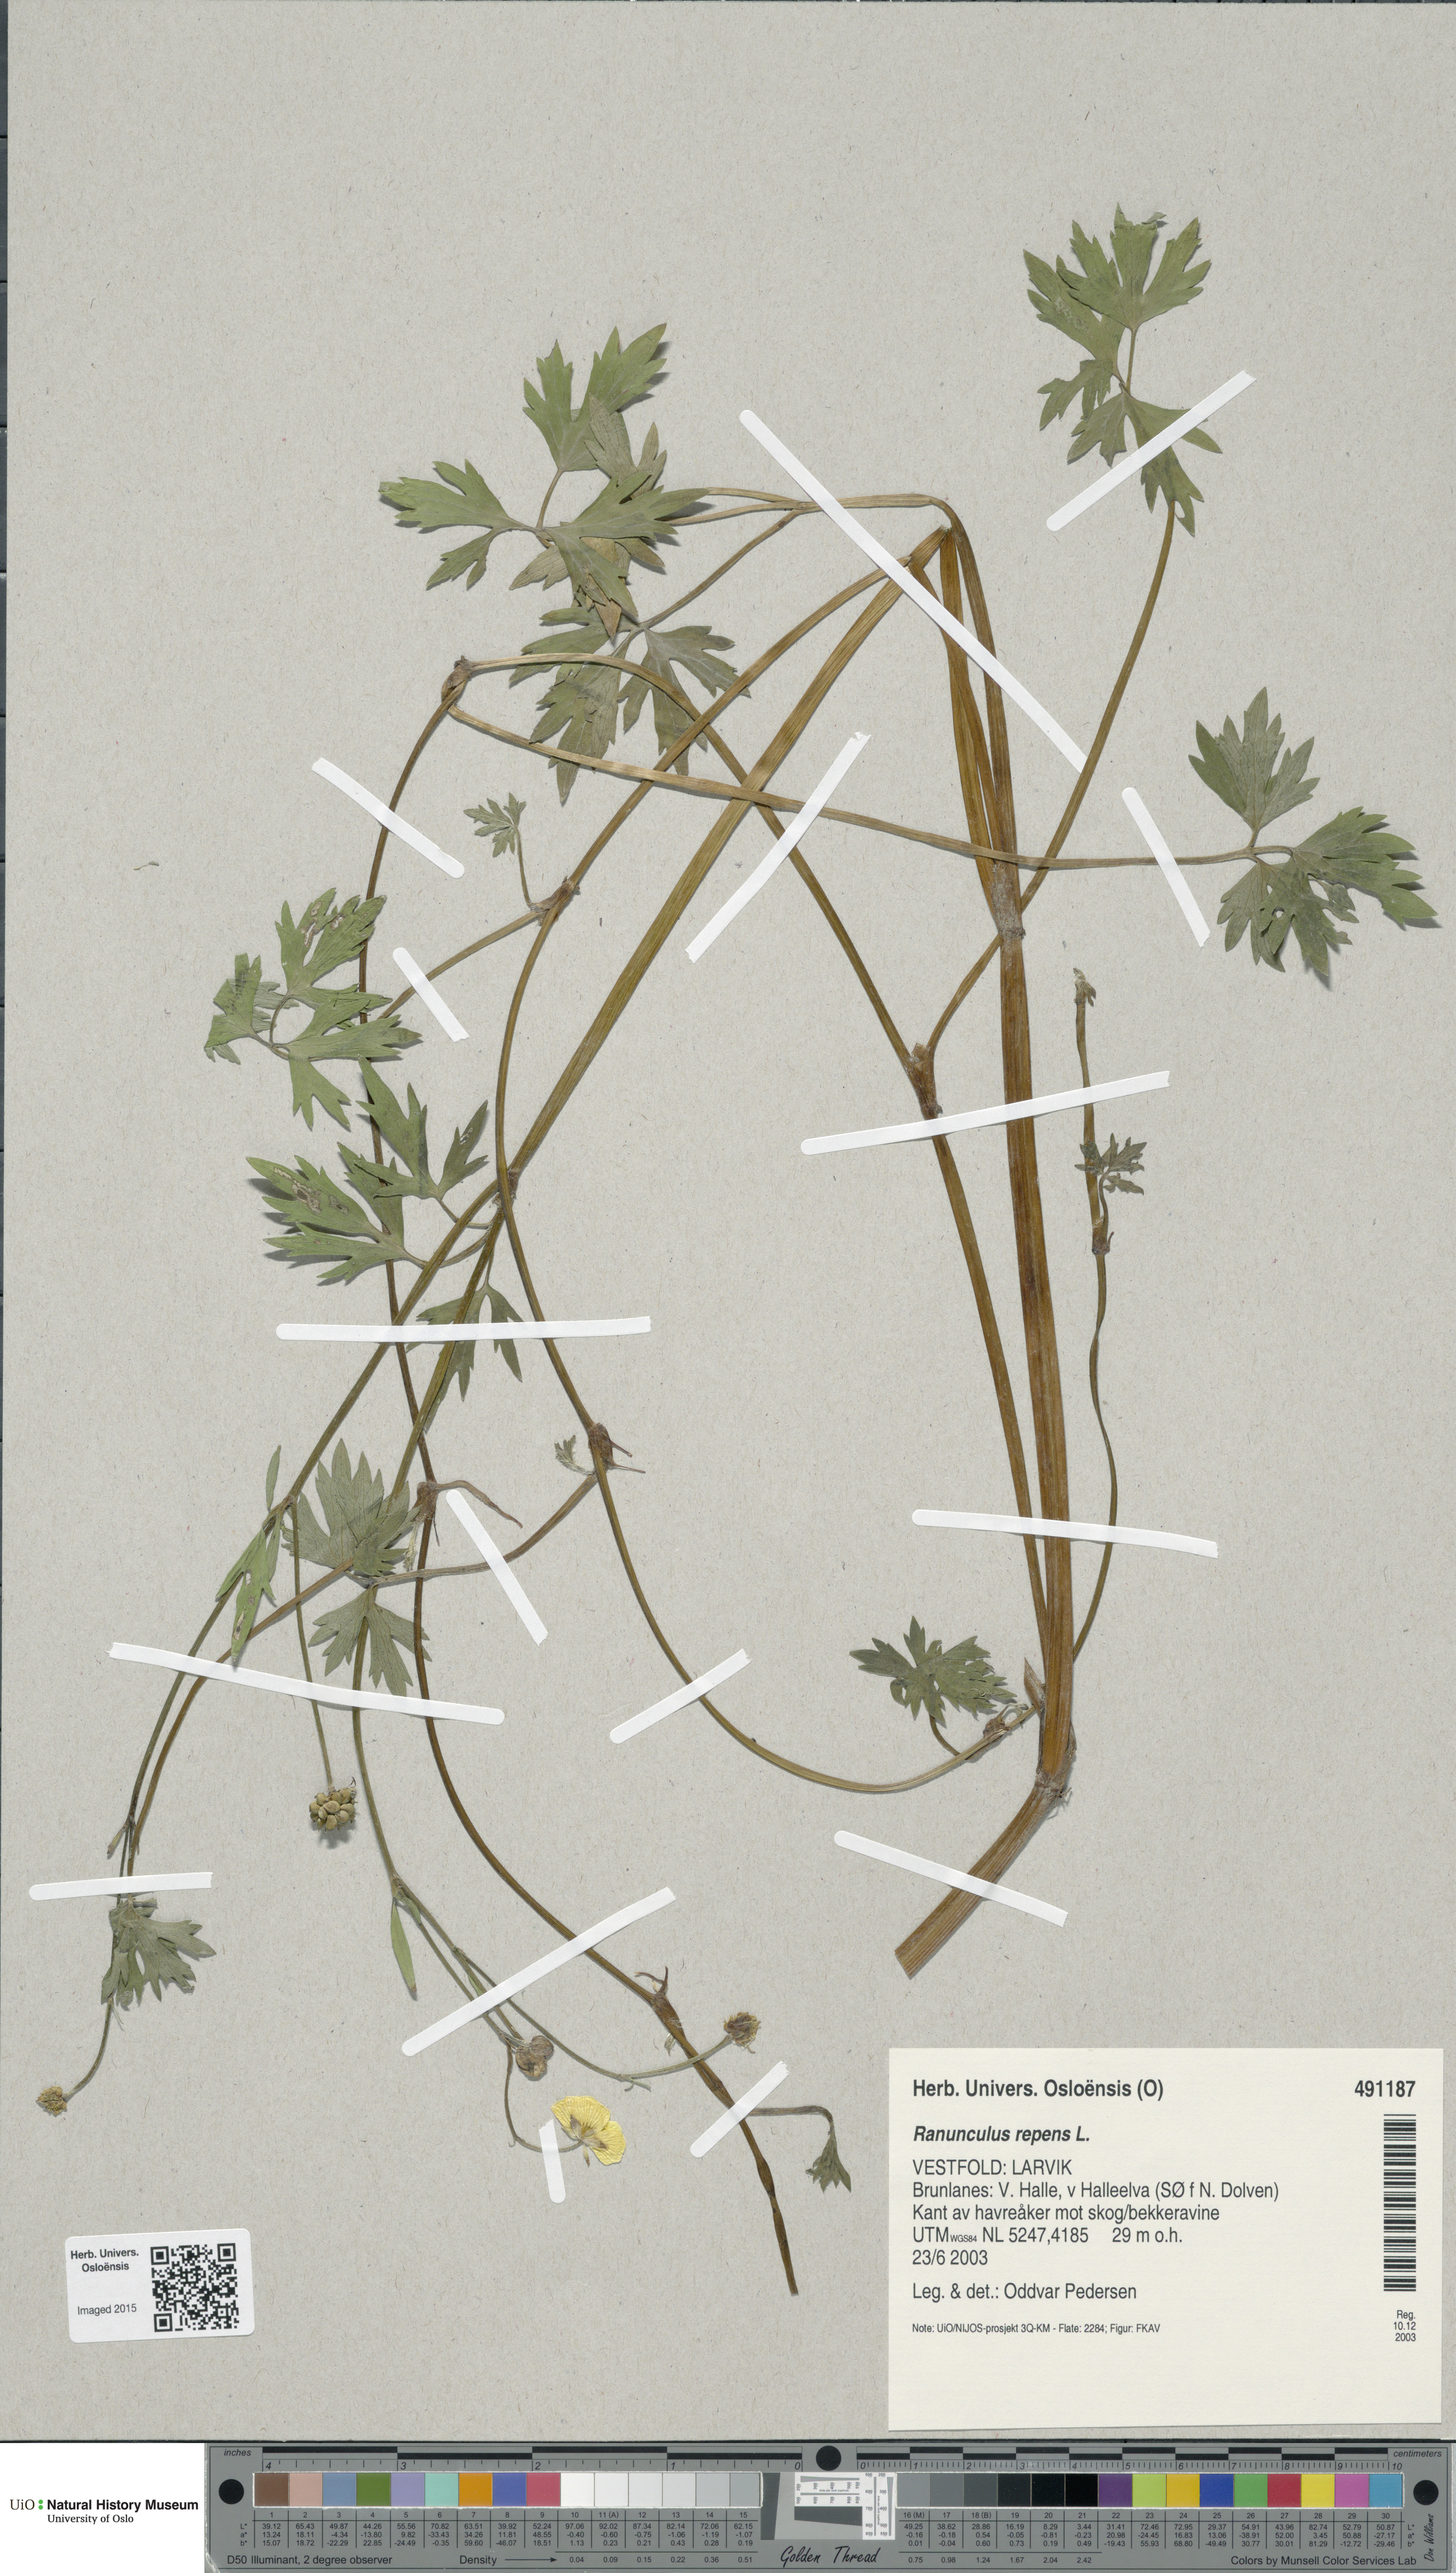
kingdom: Plantae
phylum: Tracheophyta
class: Magnoliopsida
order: Ranunculales
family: Ranunculaceae
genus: Ranunculus
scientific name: Ranunculus repens
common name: Creeping buttercup
